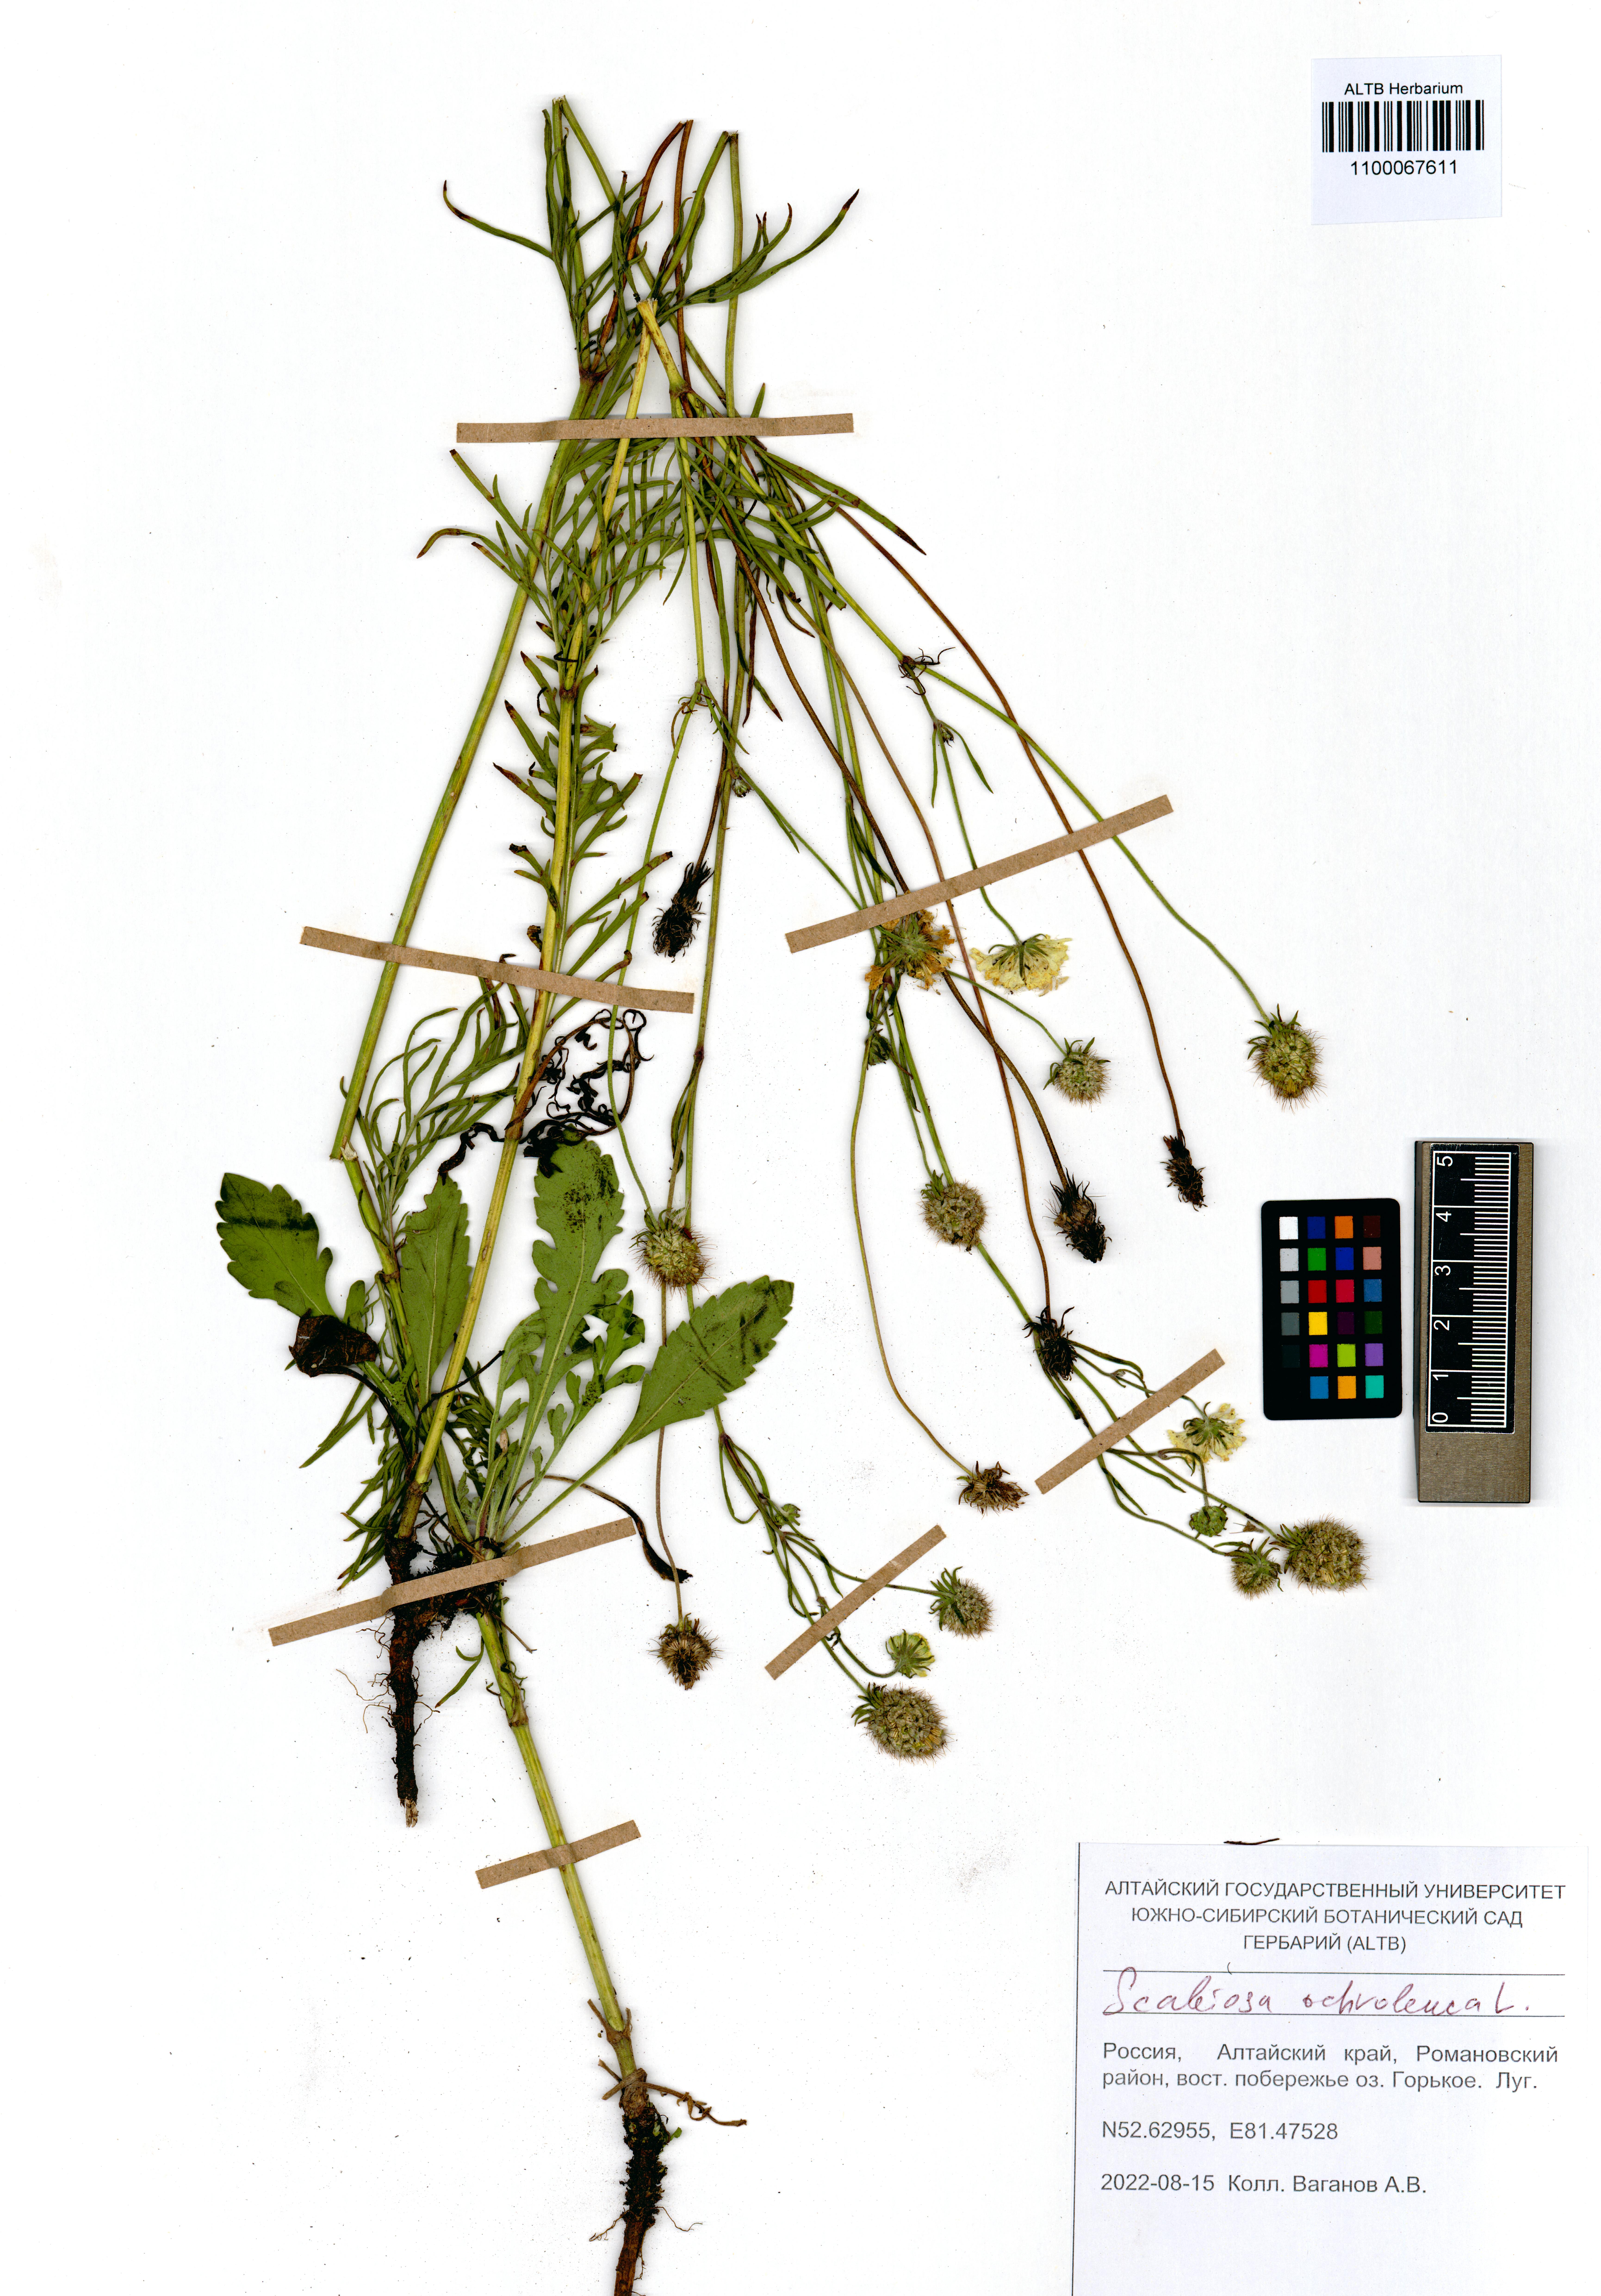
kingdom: Plantae
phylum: Tracheophyta
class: Magnoliopsida
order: Dipsacales
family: Caprifoliaceae
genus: Scabiosa
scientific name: Scabiosa ochroleuca
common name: Cream pincushions
